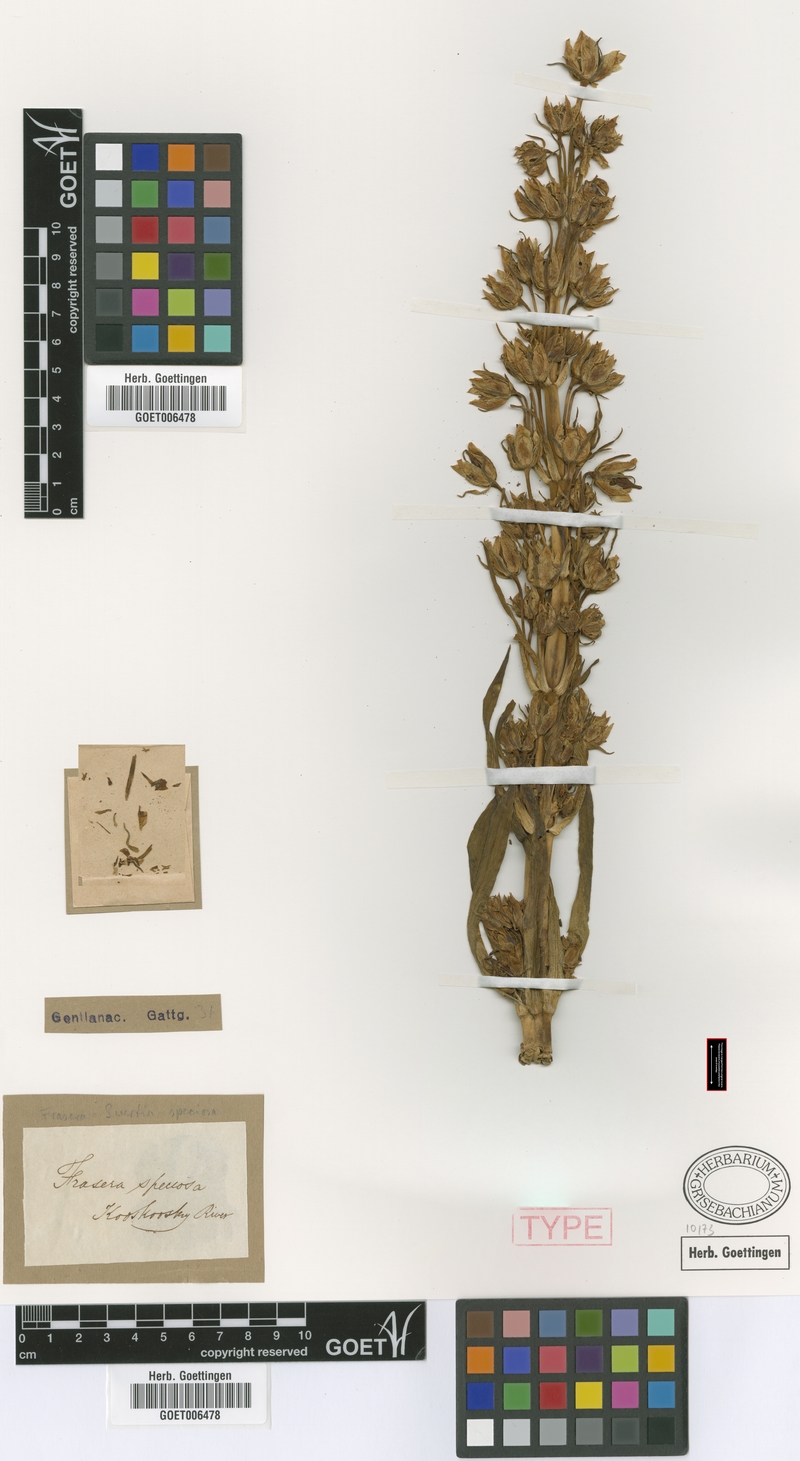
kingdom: Plantae
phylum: Tracheophyta
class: Magnoliopsida
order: Gentianales
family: Gentianaceae
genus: Frasera
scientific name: Frasera speciosa
